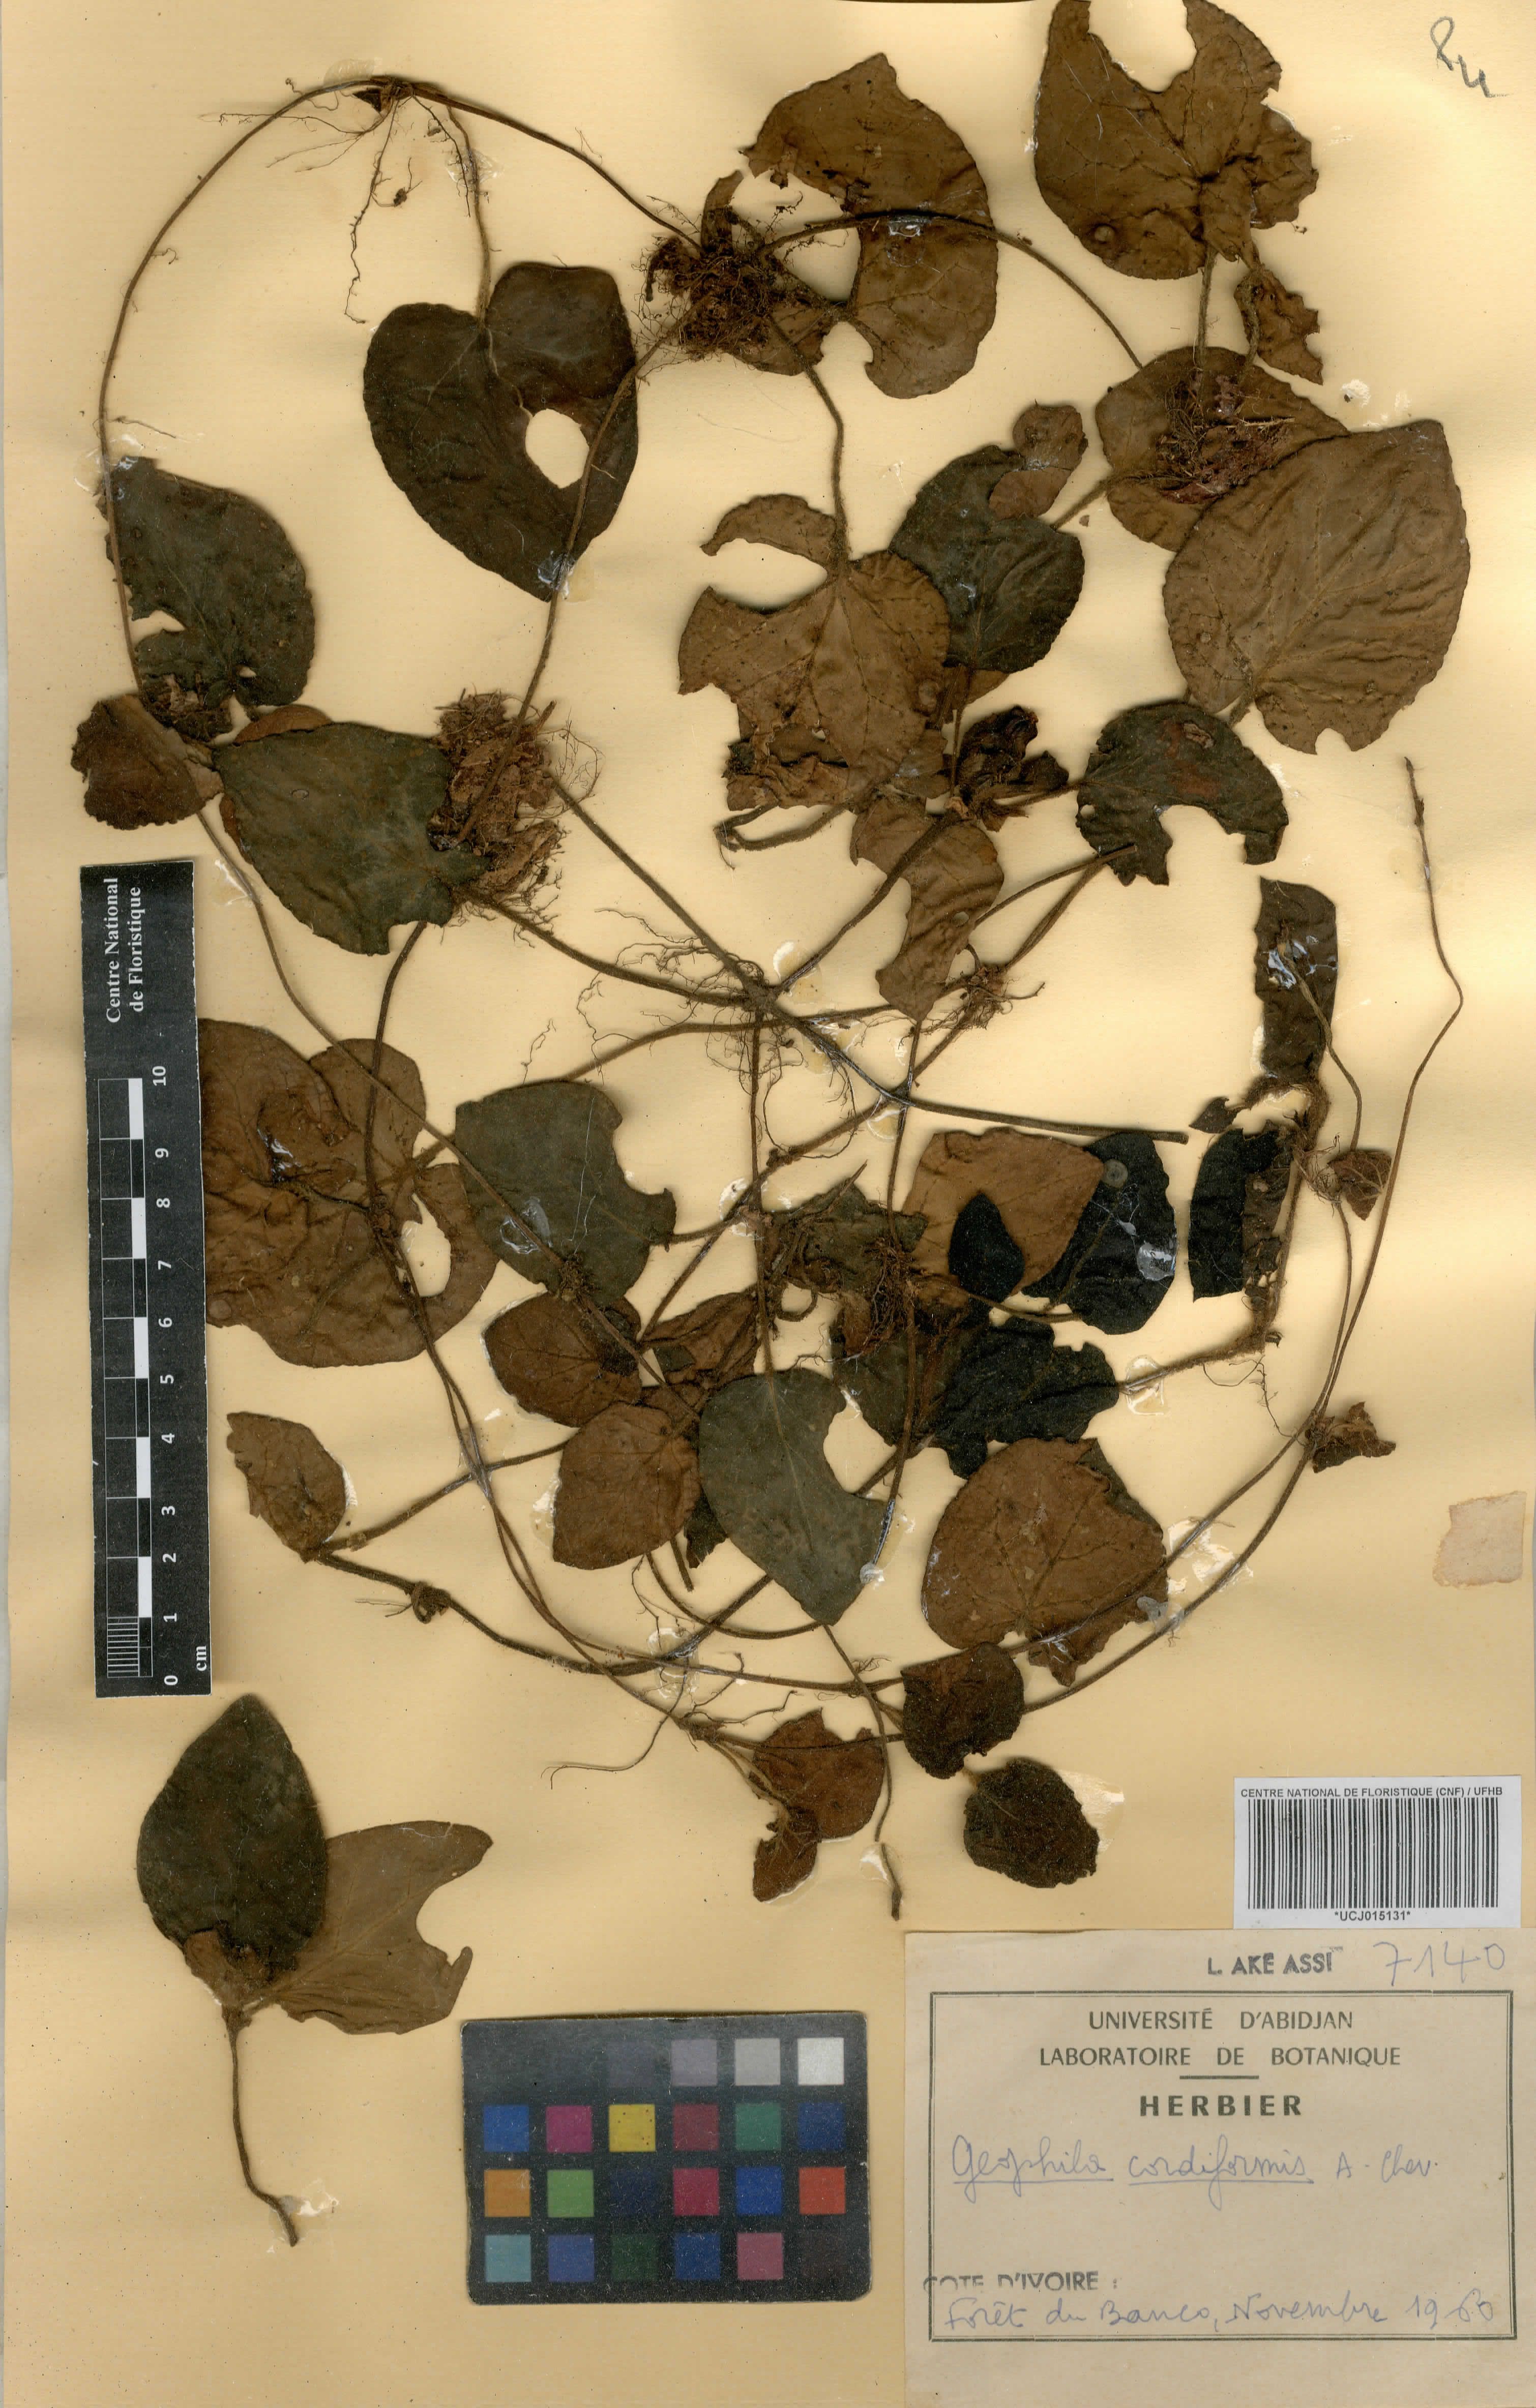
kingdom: Plantae
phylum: Tracheophyta
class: Magnoliopsida
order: Gentianales
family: Rubiaceae
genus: Geophila
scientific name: Geophila cordiformis
